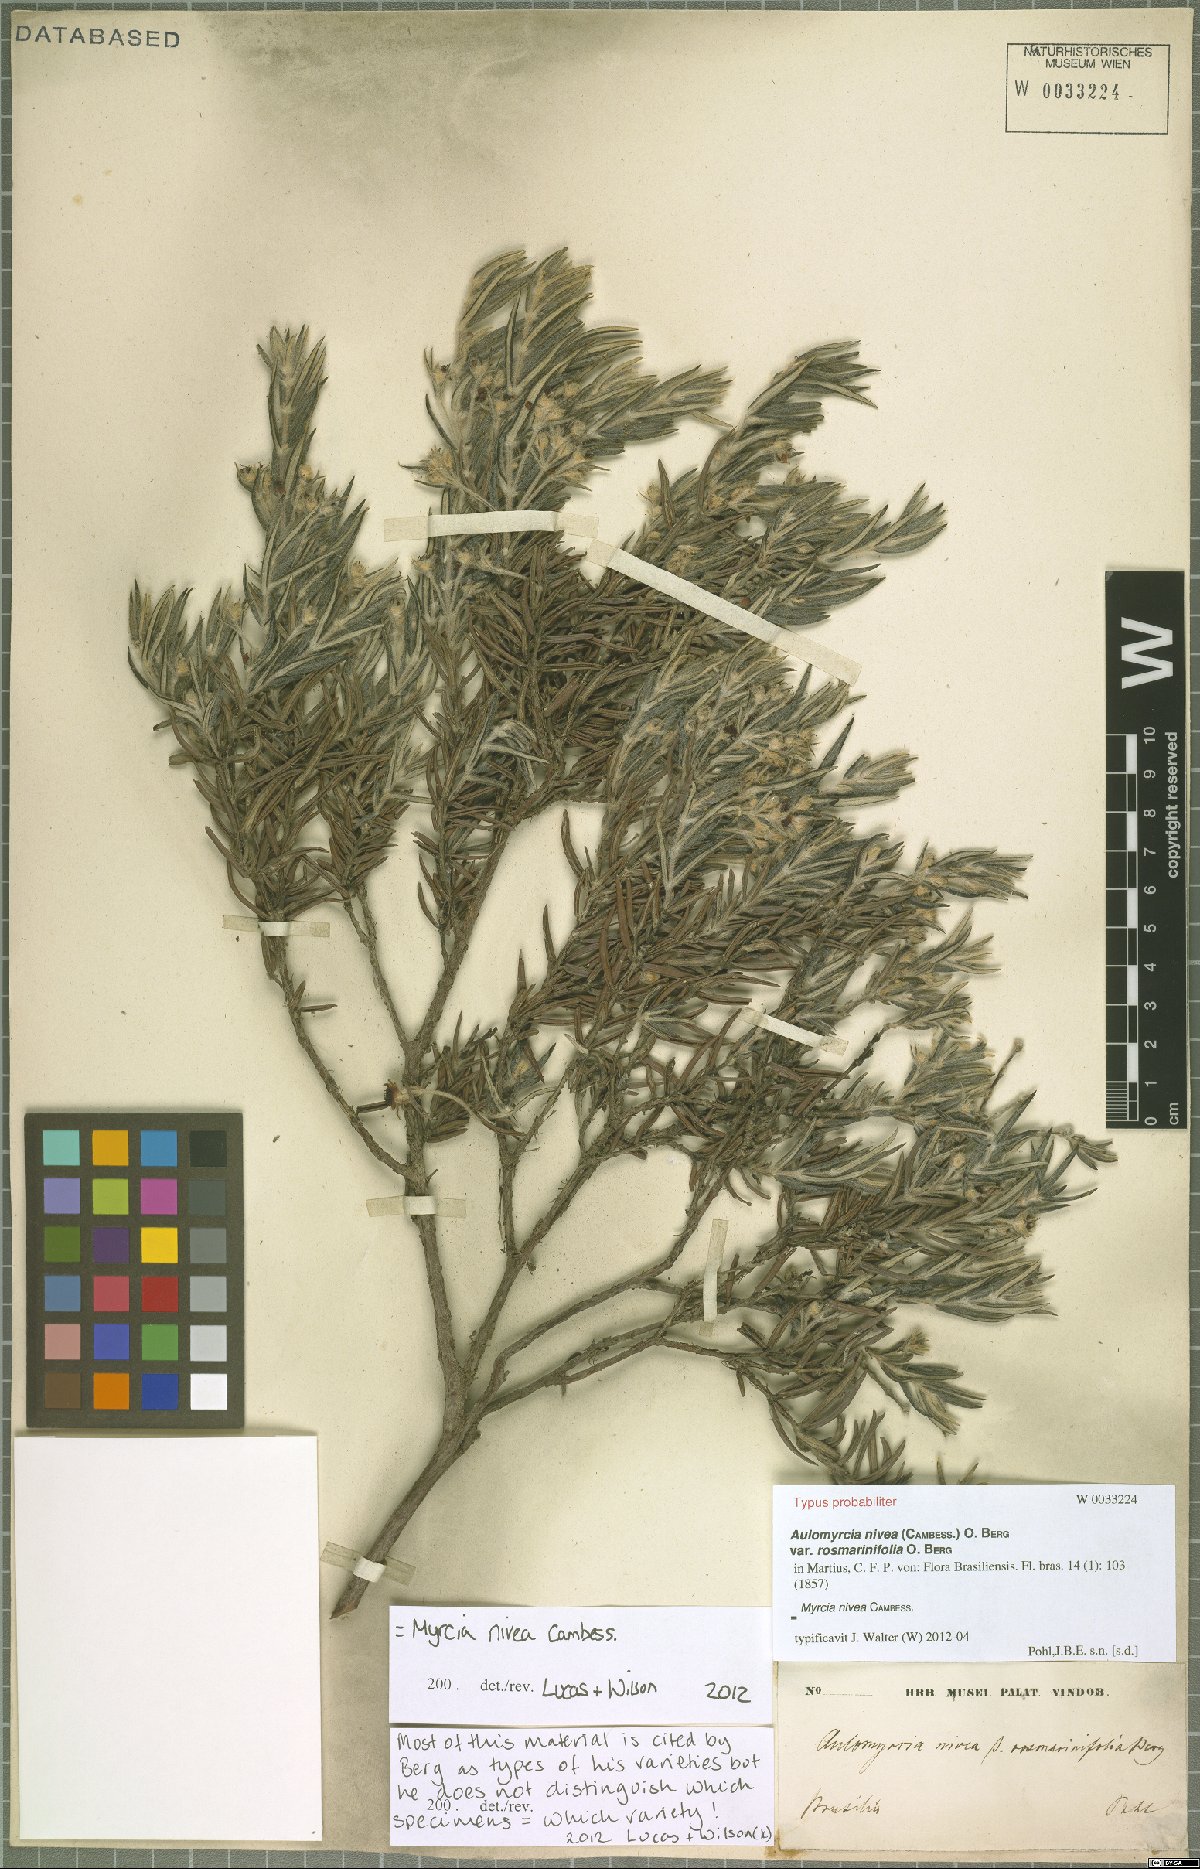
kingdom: Plantae
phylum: Tracheophyta
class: Magnoliopsida
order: Myrtales
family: Myrtaceae
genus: Myrcia
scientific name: Myrcia nivea
